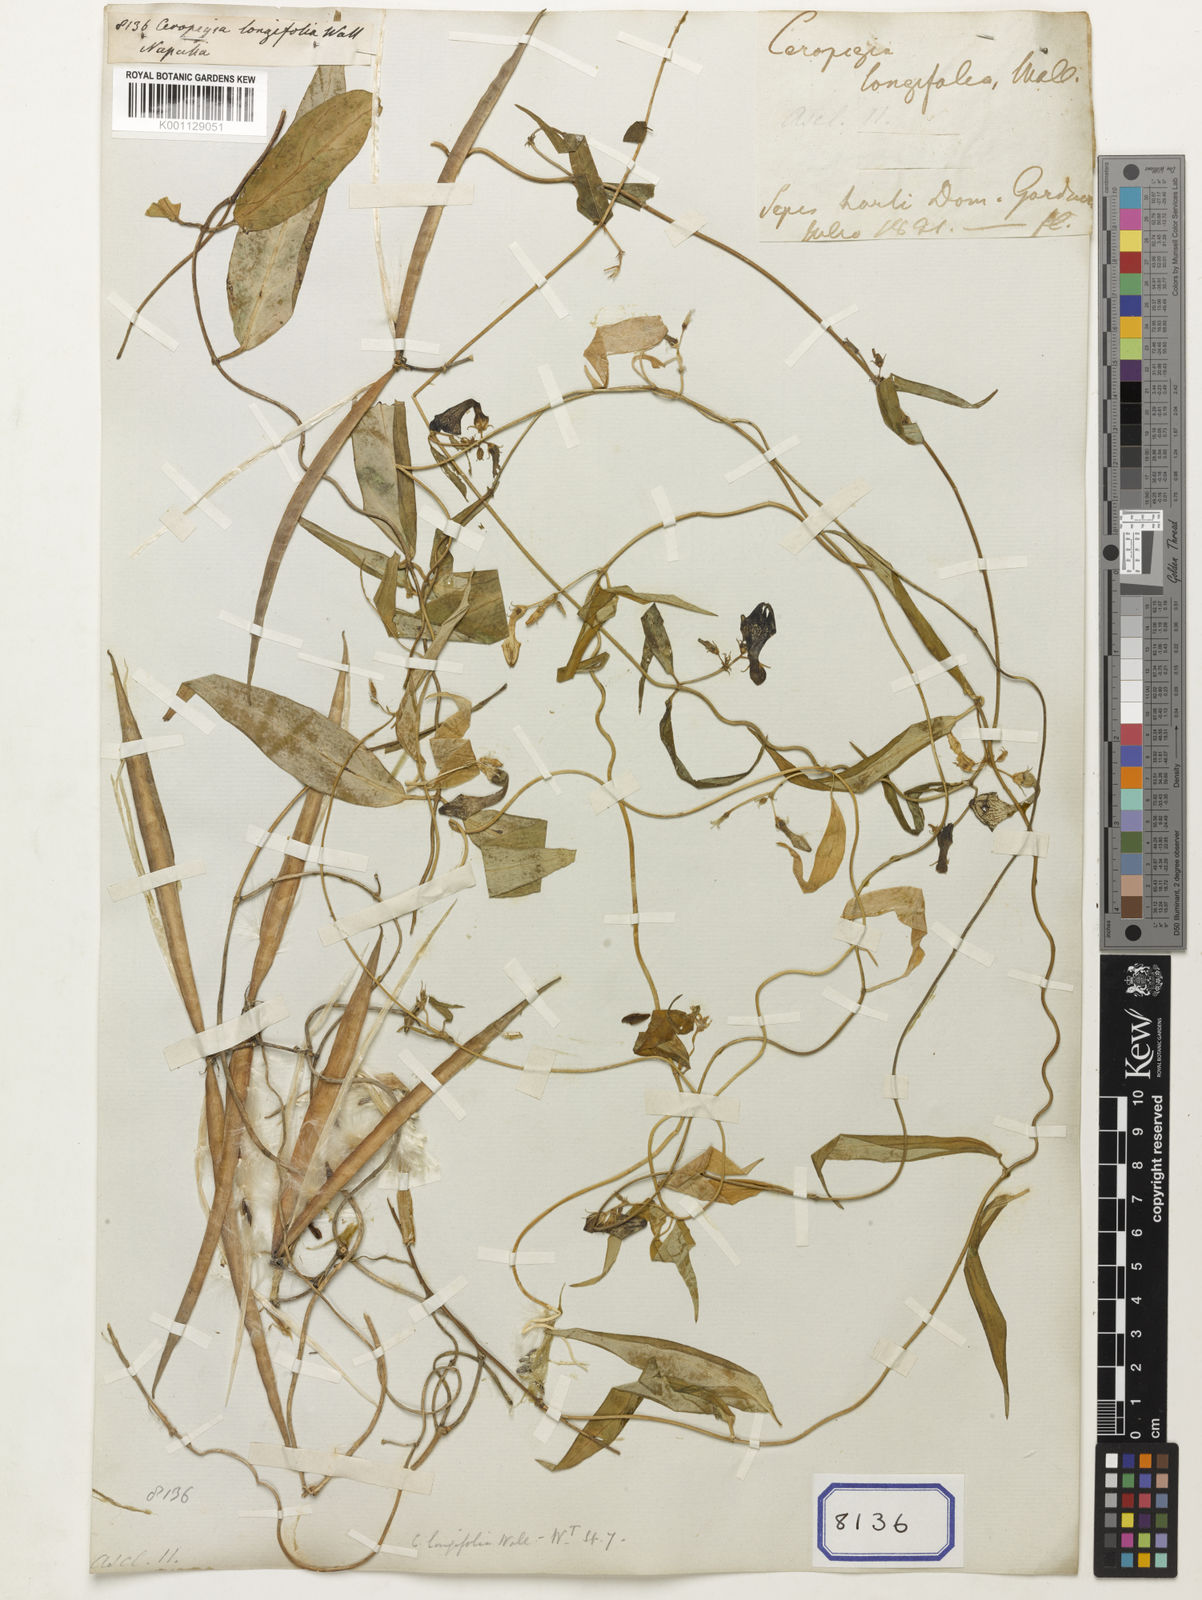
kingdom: Plantae
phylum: Tracheophyta
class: Magnoliopsida
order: Gentianales
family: Apocynaceae
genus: Ceropegia
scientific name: Ceropegia longifolia
